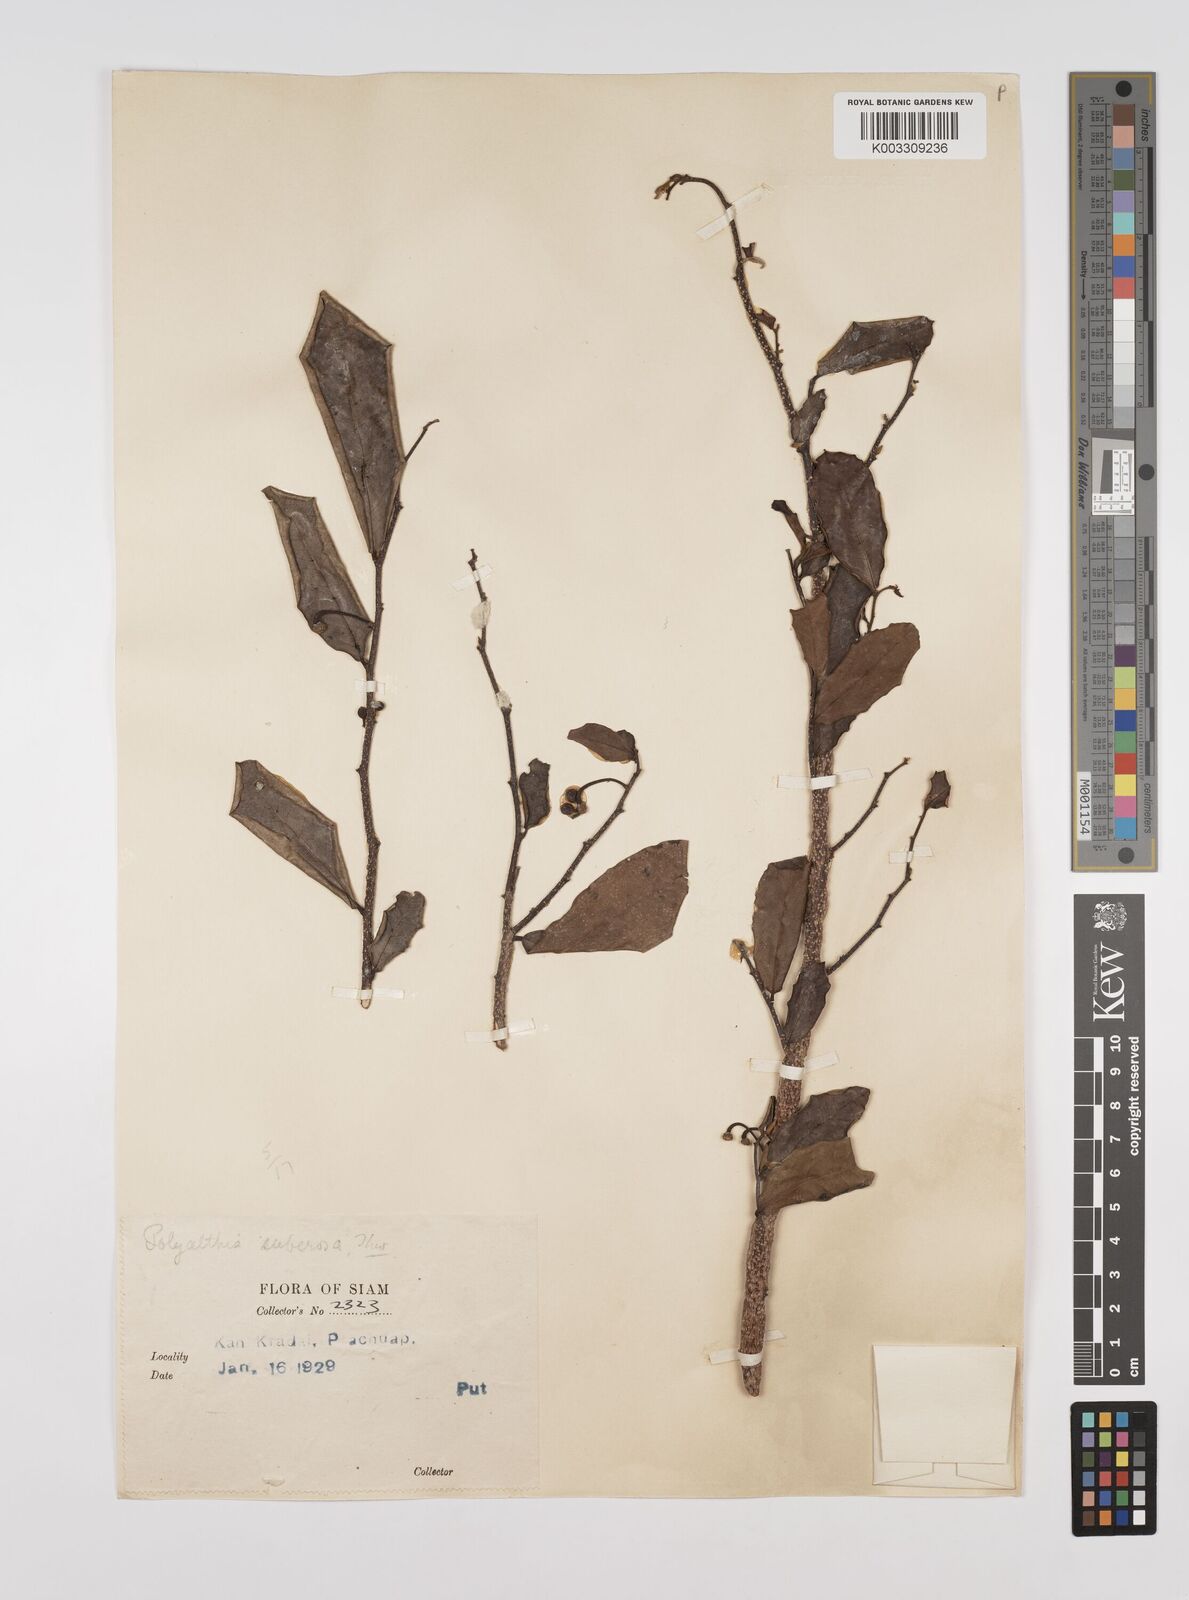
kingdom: Plantae
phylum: Tracheophyta
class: Magnoliopsida
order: Magnoliales
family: Annonaceae
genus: Polyalthia
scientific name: Polyalthia suberosa
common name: Polyalthia plant
